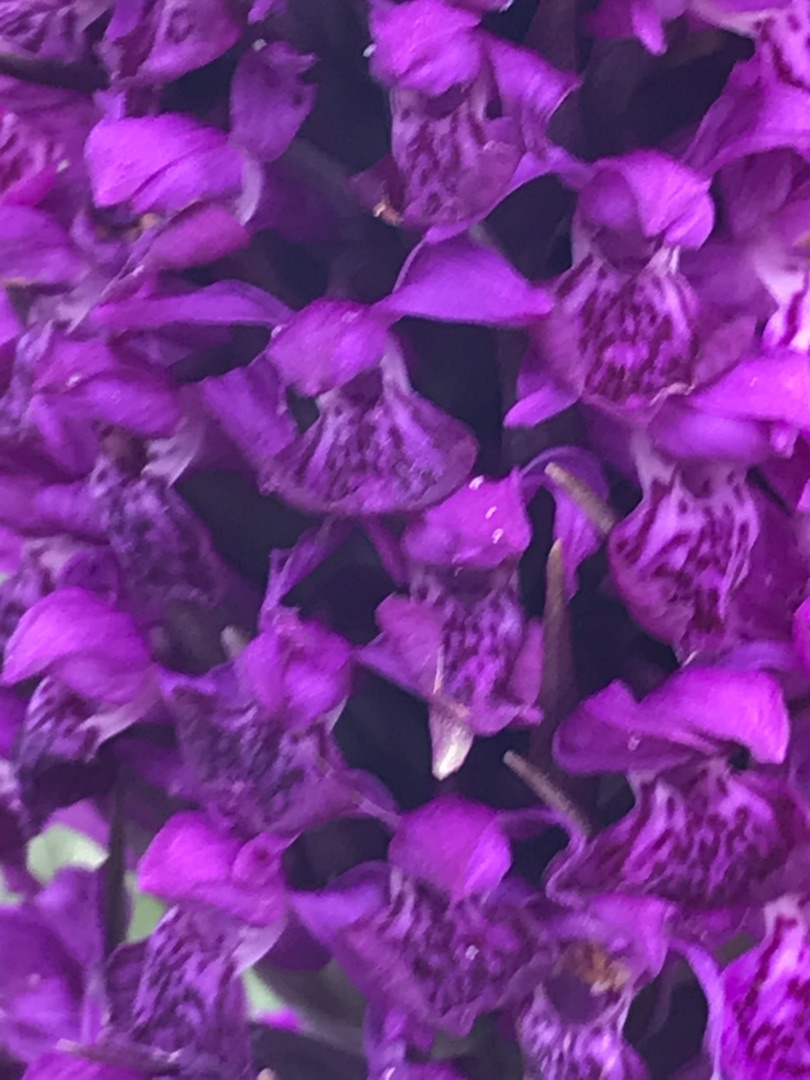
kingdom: Plantae
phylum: Tracheophyta
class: Liliopsida
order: Asparagales
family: Orchidaceae
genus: Dactylorhiza
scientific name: Dactylorhiza majalis
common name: Purpur-gøgeurt
